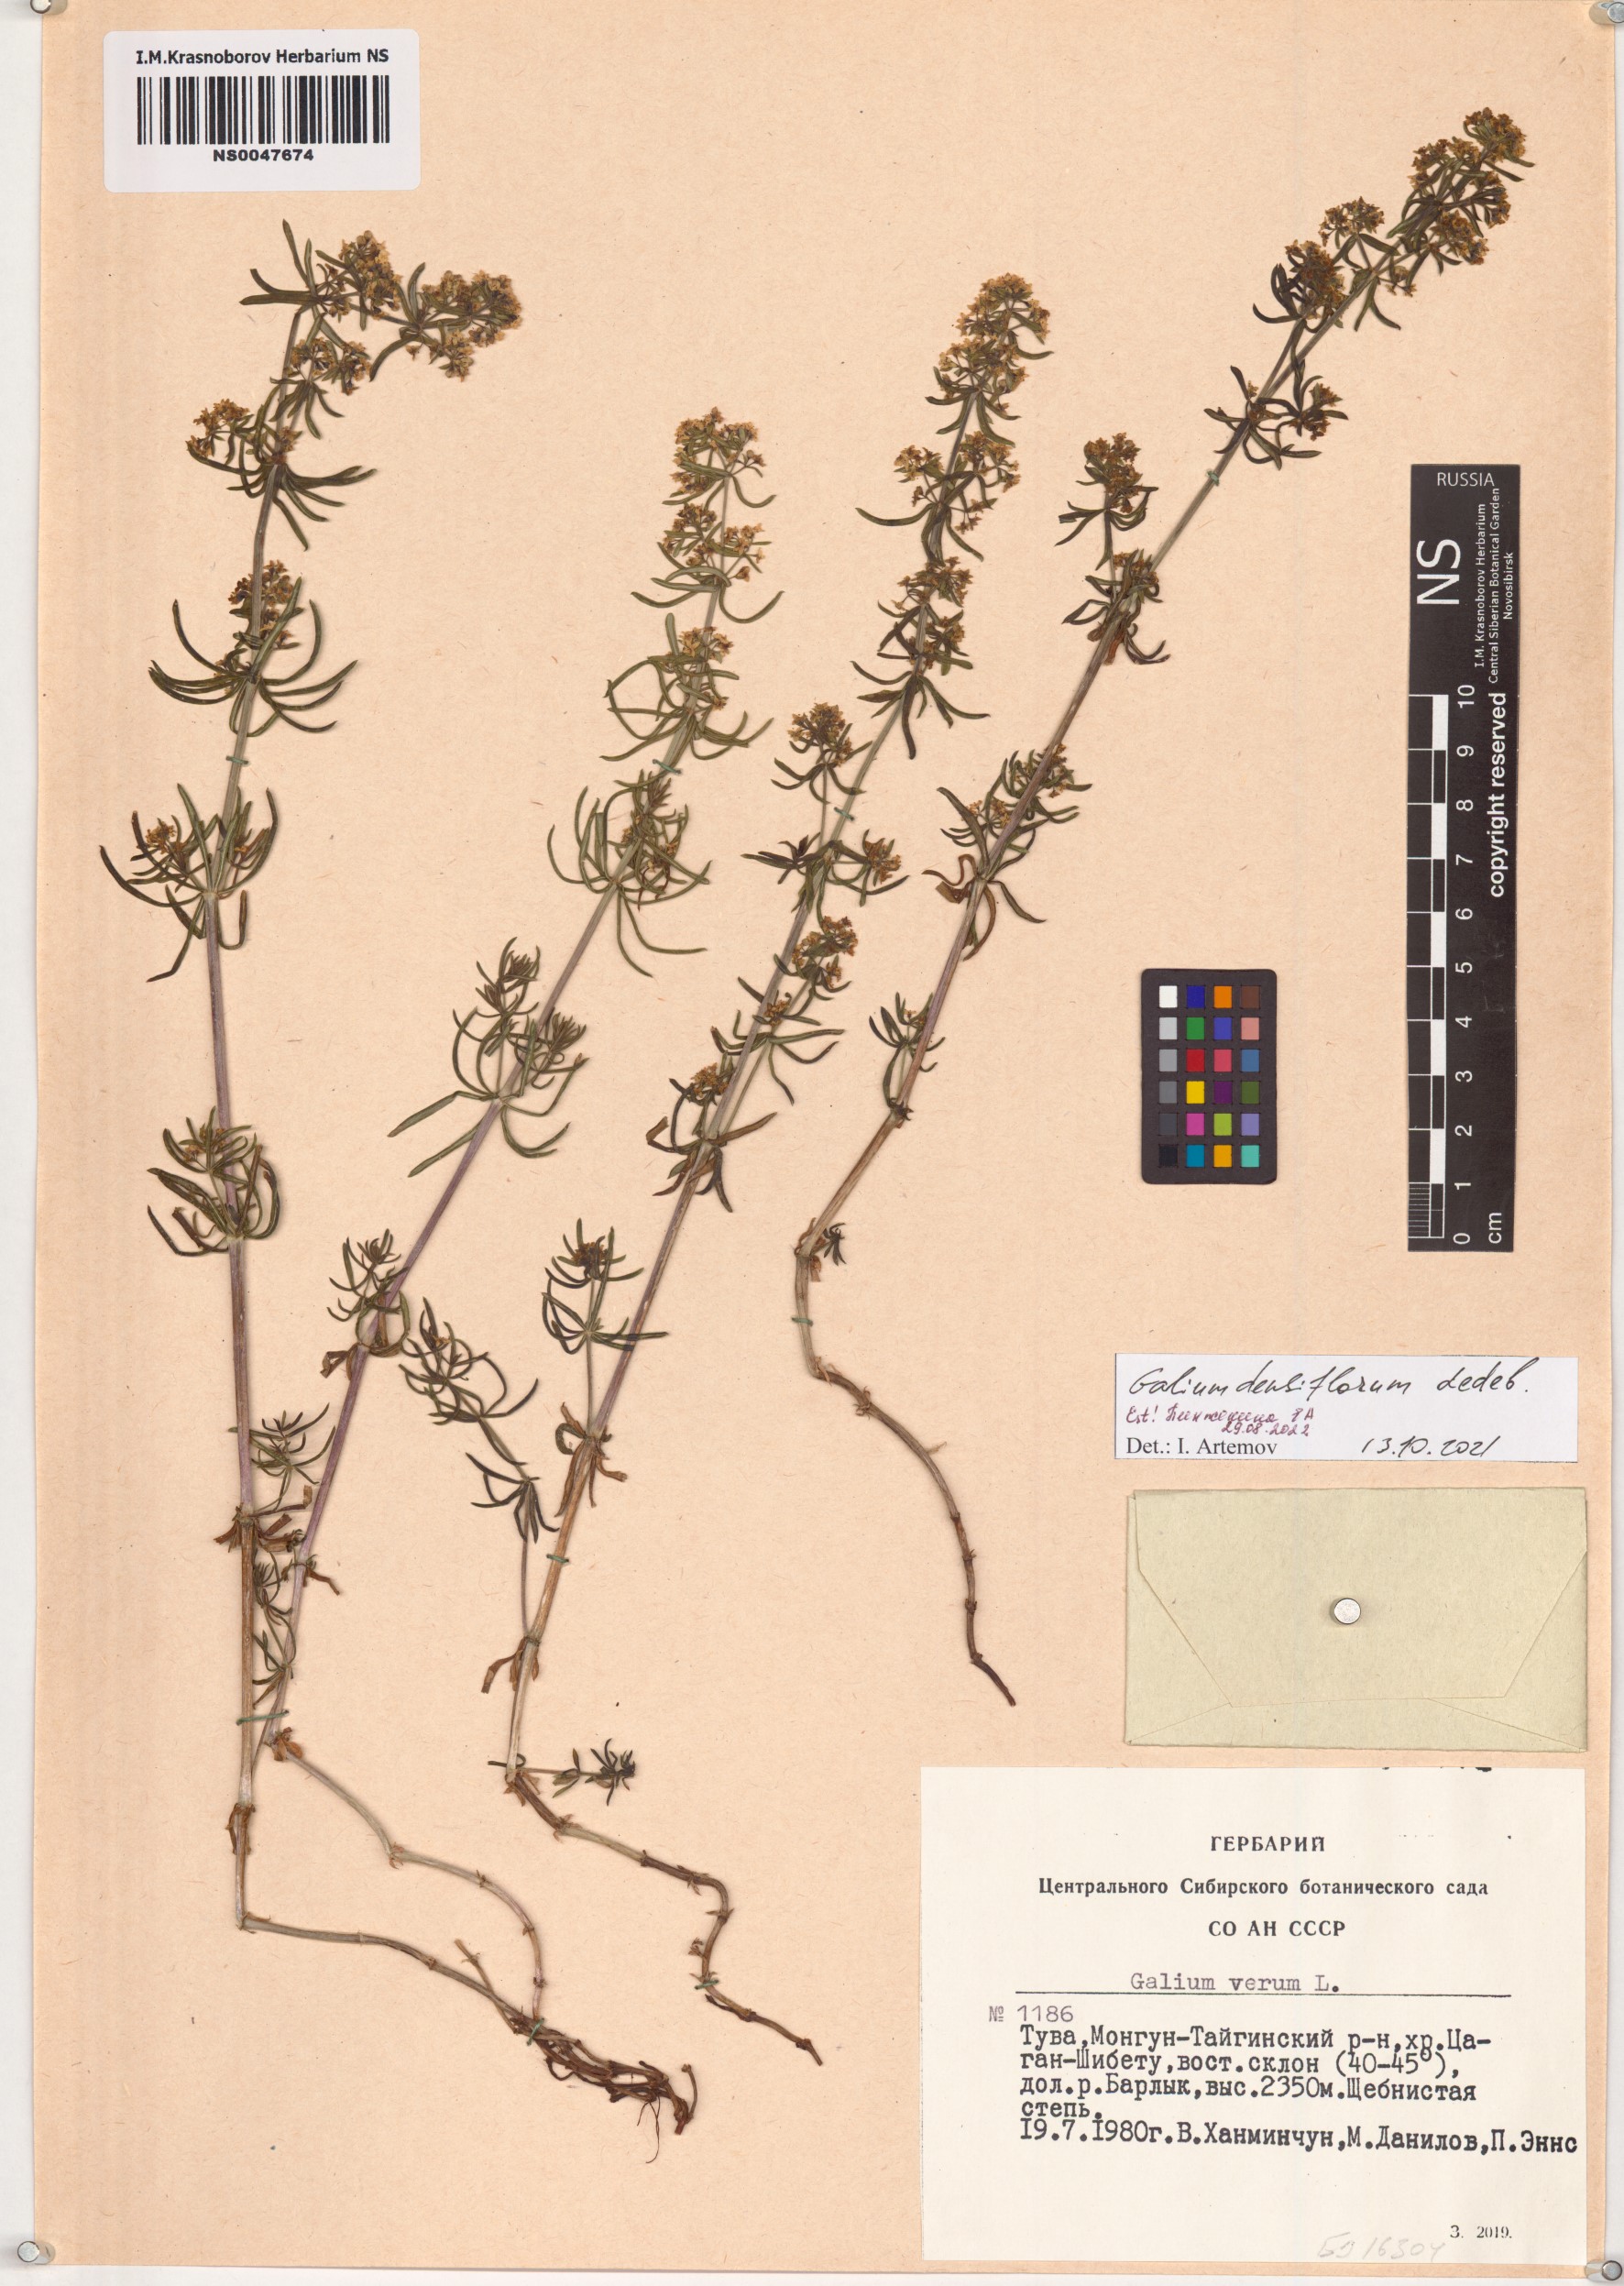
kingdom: Plantae
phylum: Tracheophyta
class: Magnoliopsida
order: Gentianales
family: Rubiaceae
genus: Galium
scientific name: Galium densiflorum
